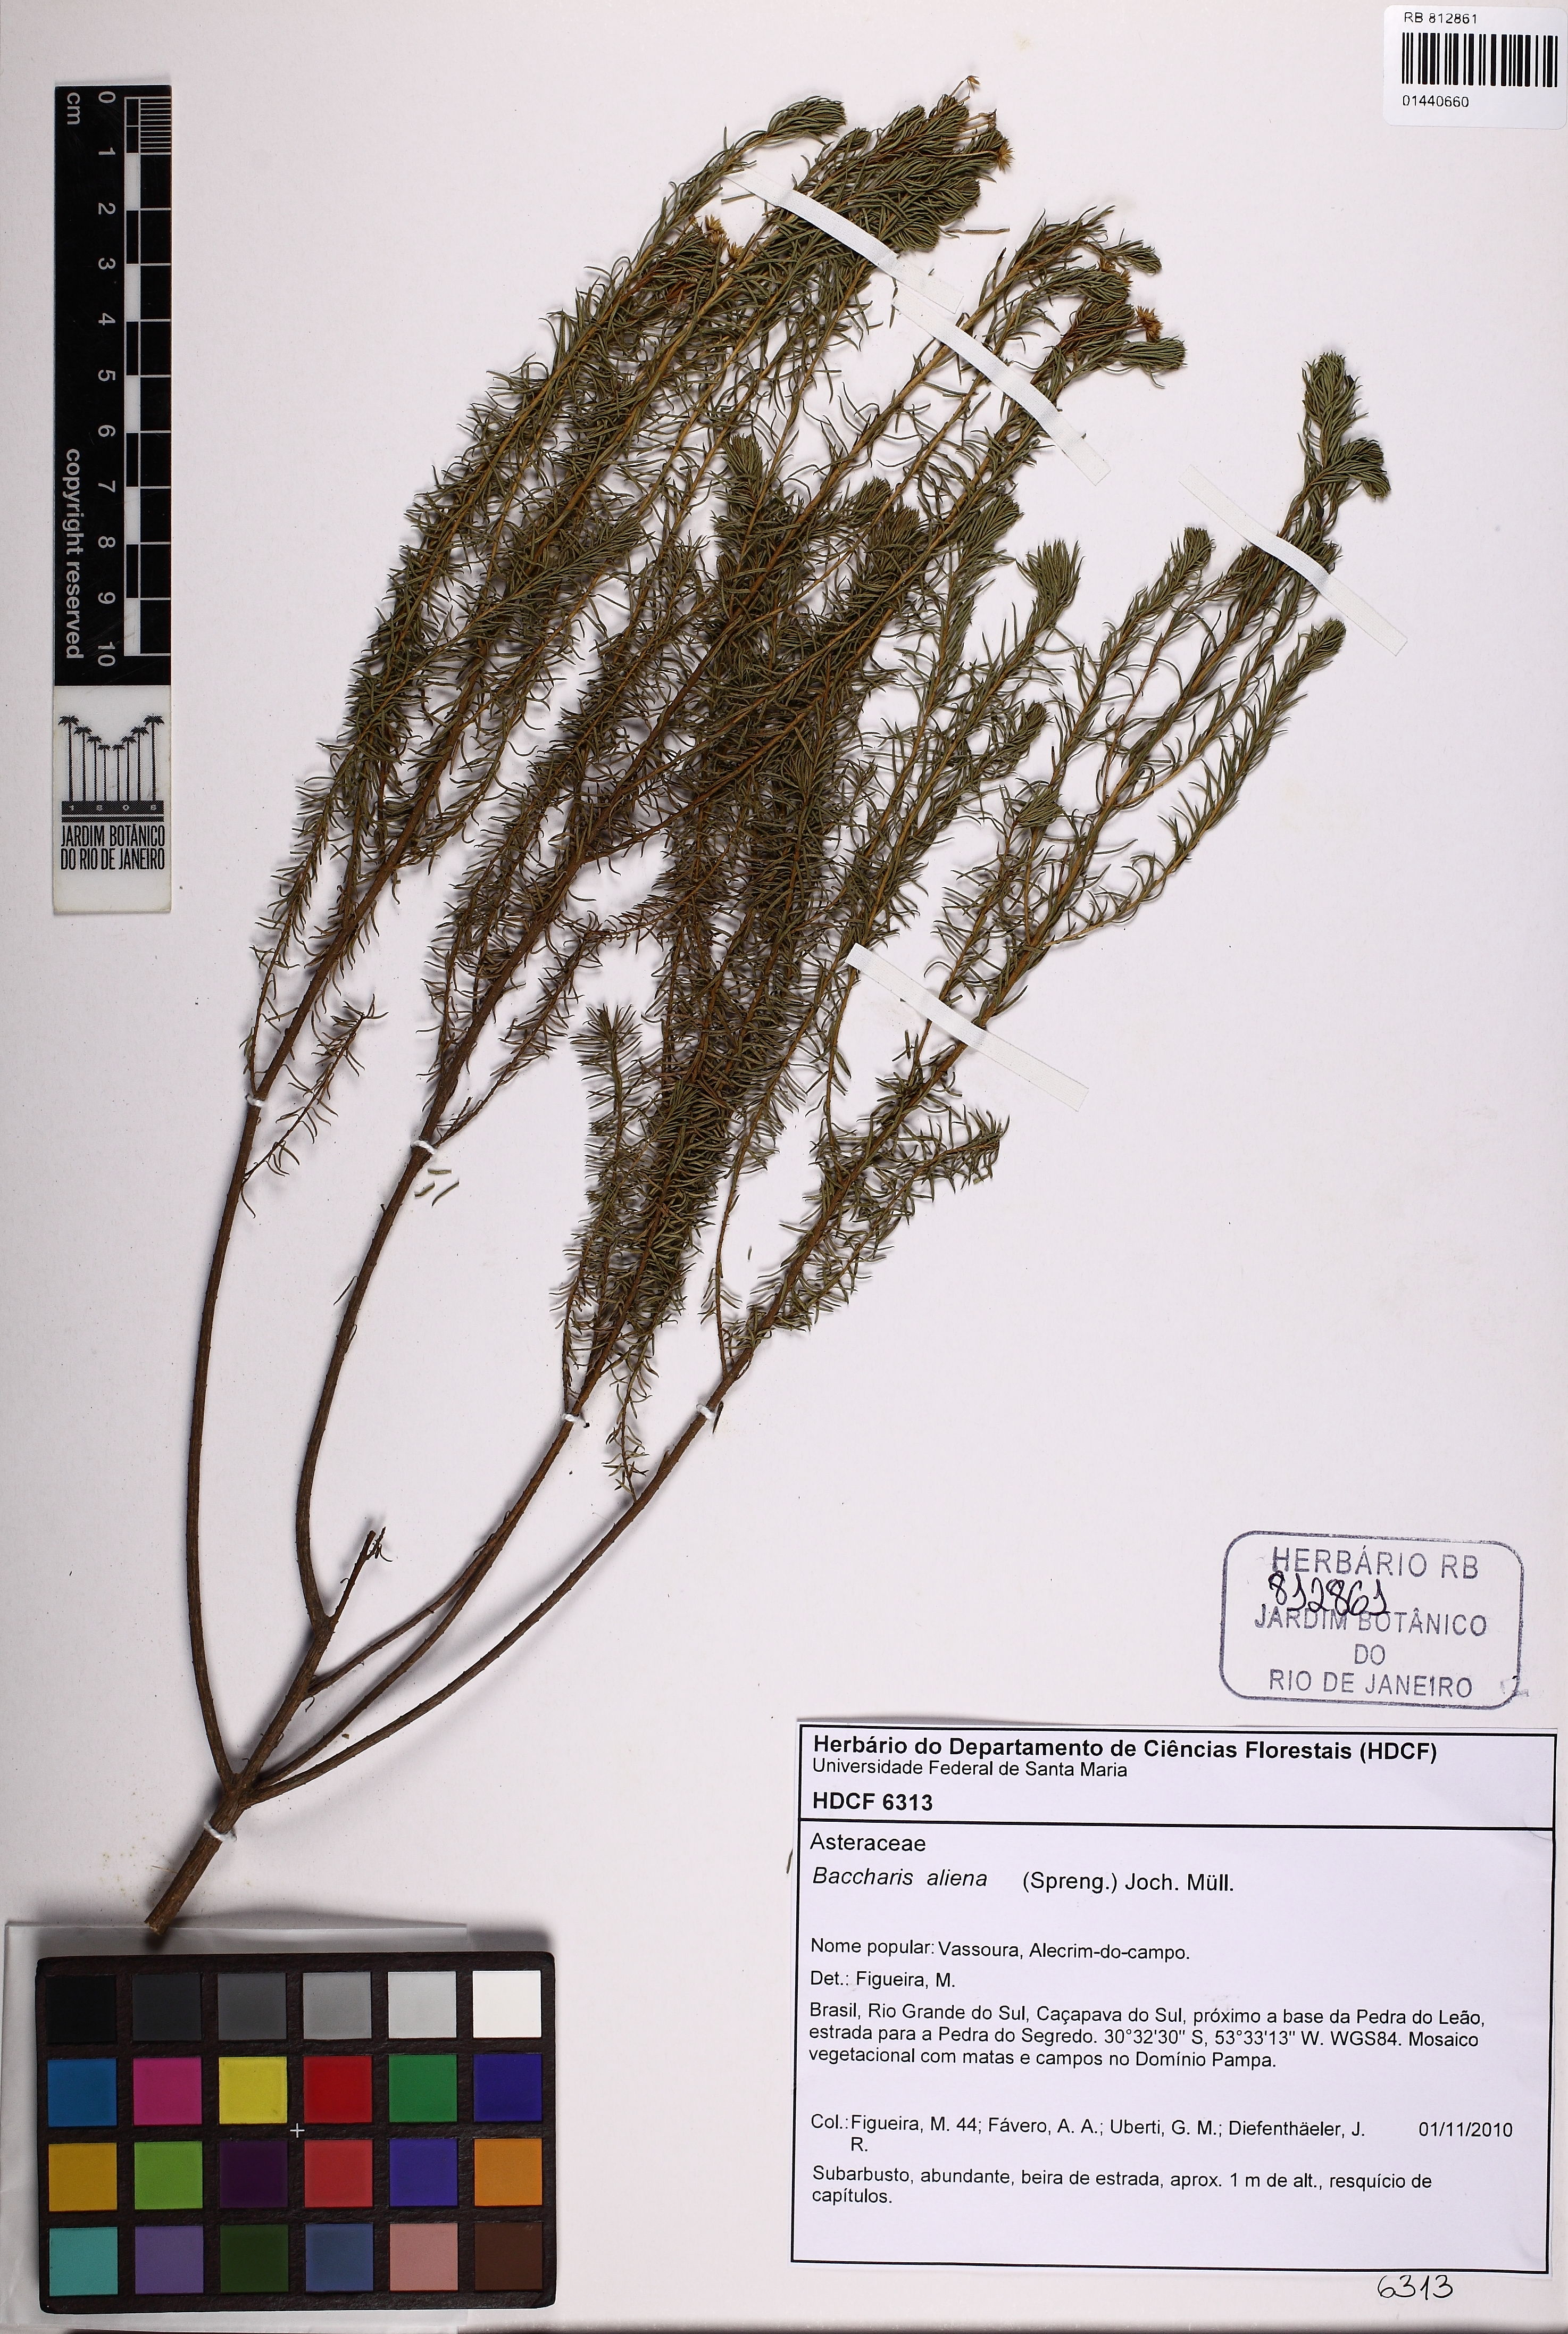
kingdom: Plantae
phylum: Tracheophyta
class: Magnoliopsida
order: Asterales
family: Asteraceae
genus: Baccharis
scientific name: Baccharis aliena
